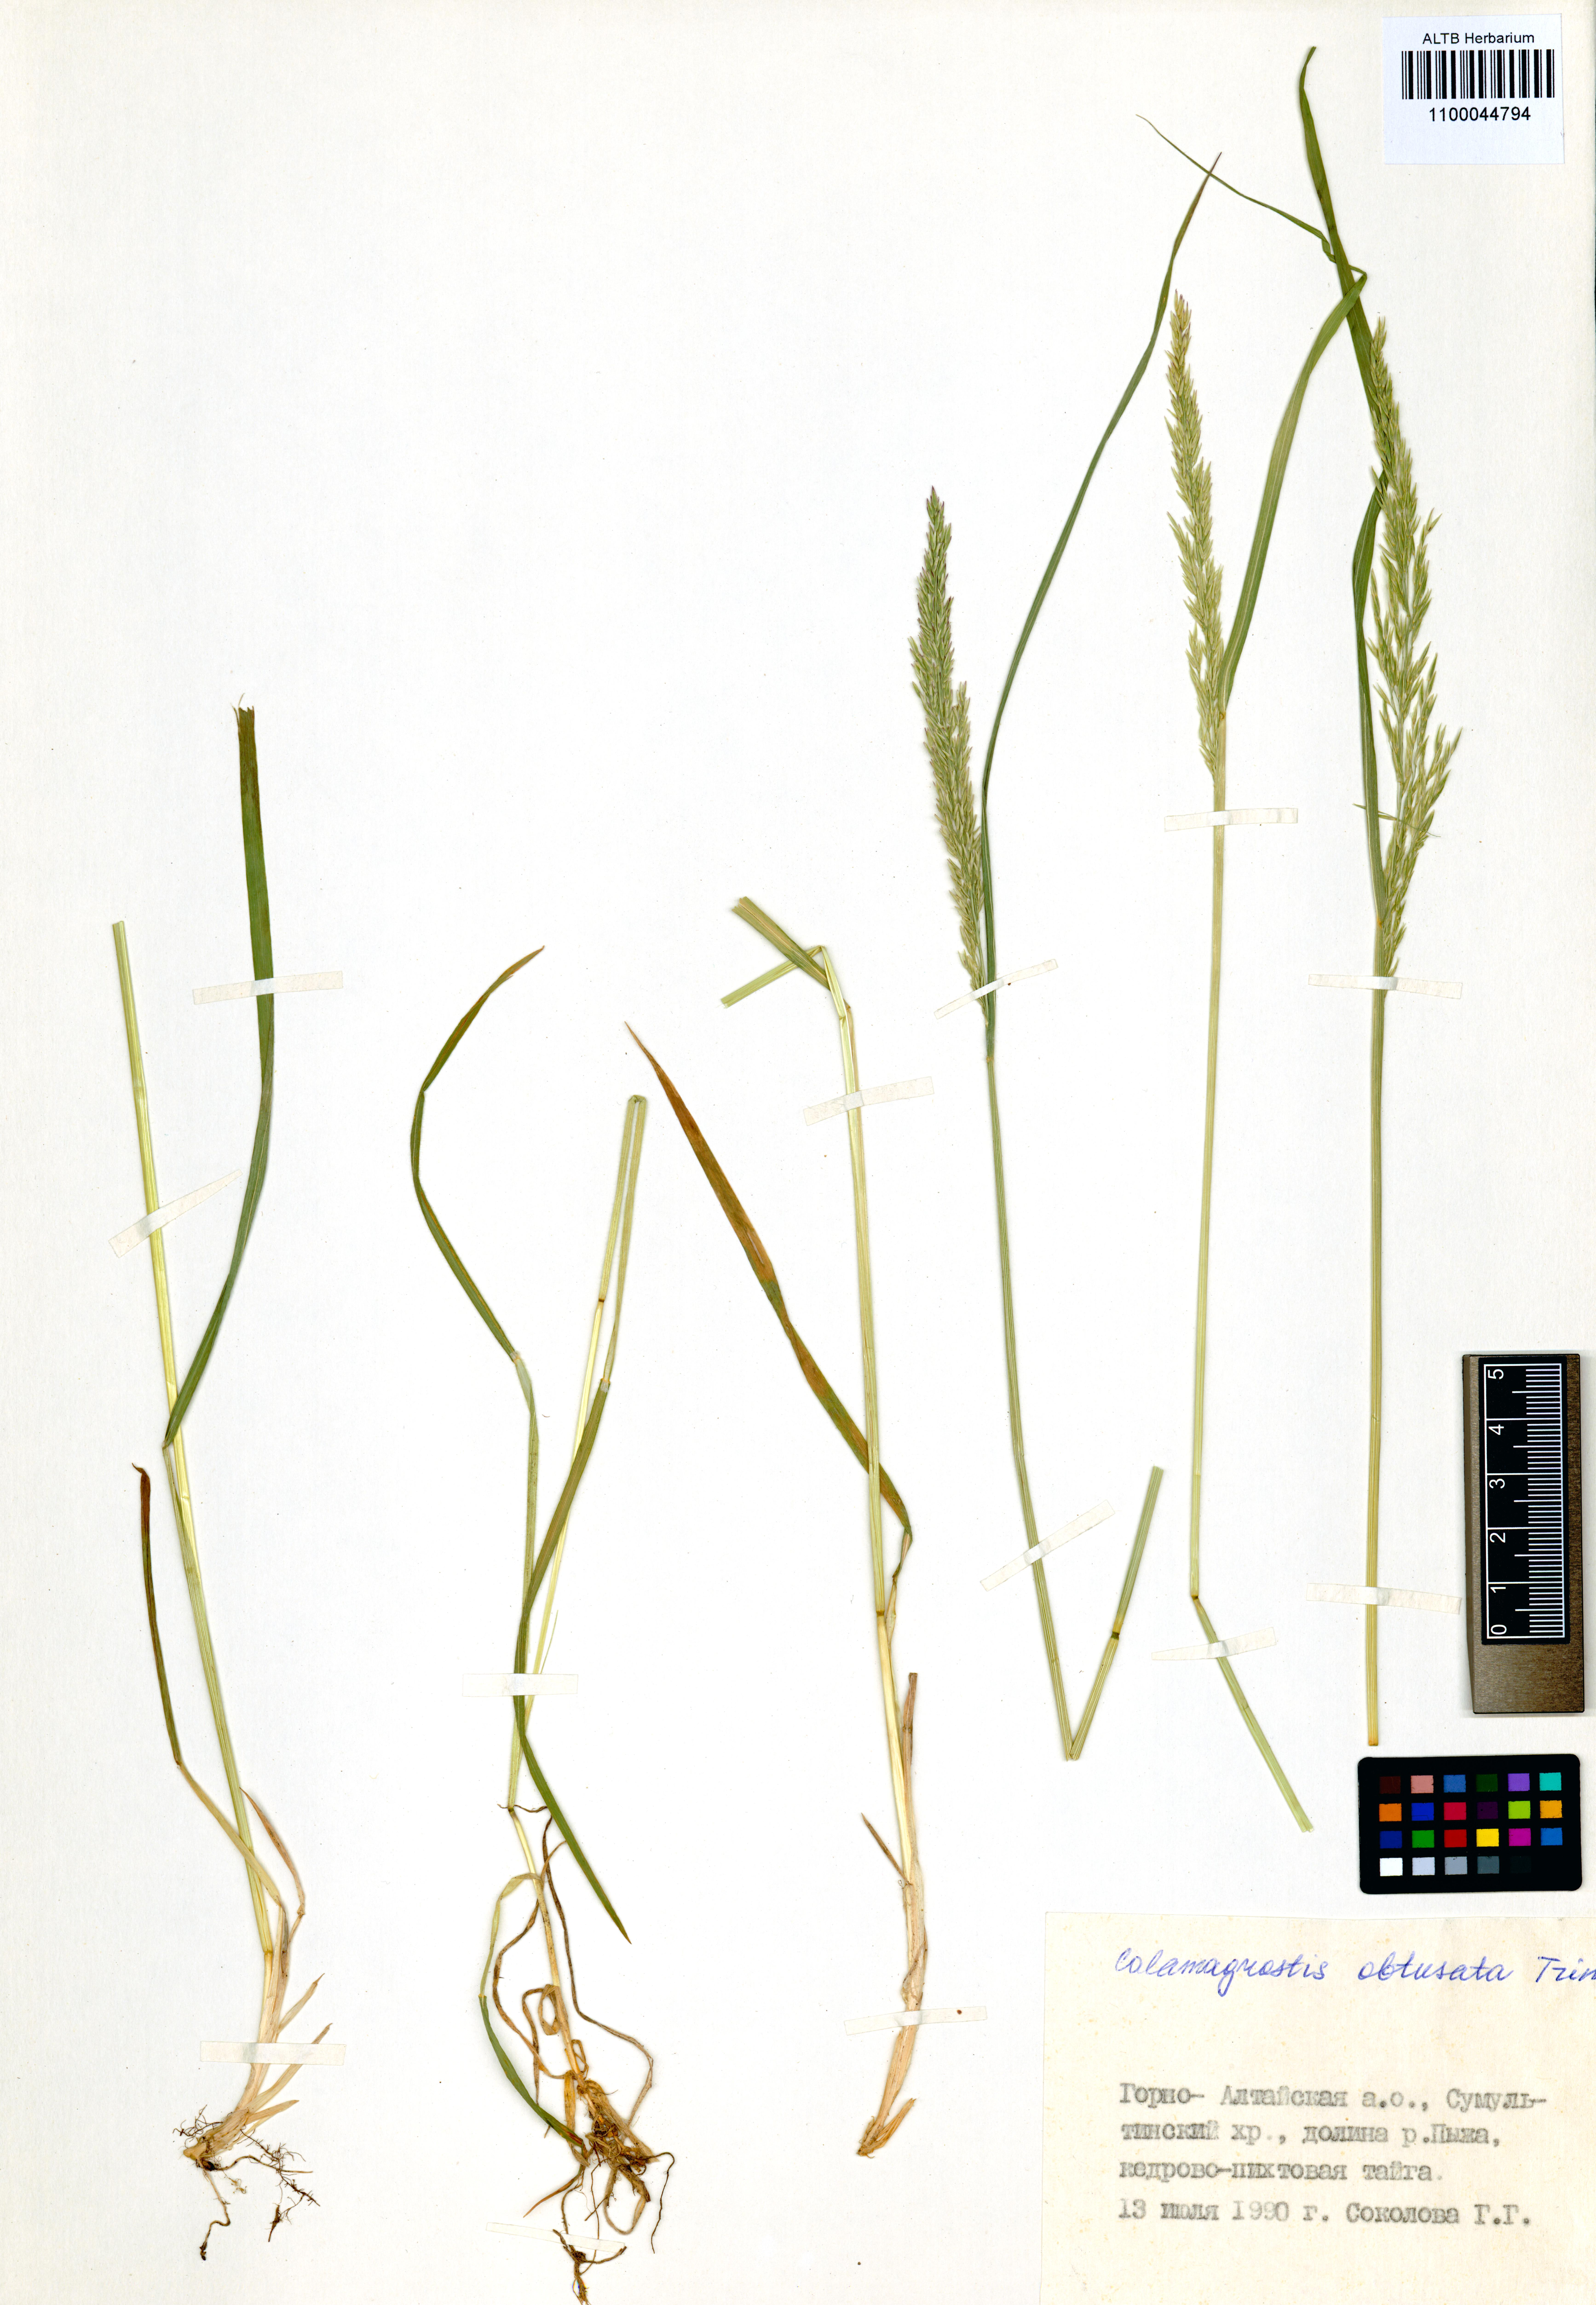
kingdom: Plantae
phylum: Tracheophyta
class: Liliopsida
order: Poales
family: Poaceae
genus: Calamagrostis
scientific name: Calamagrostis obtusata
